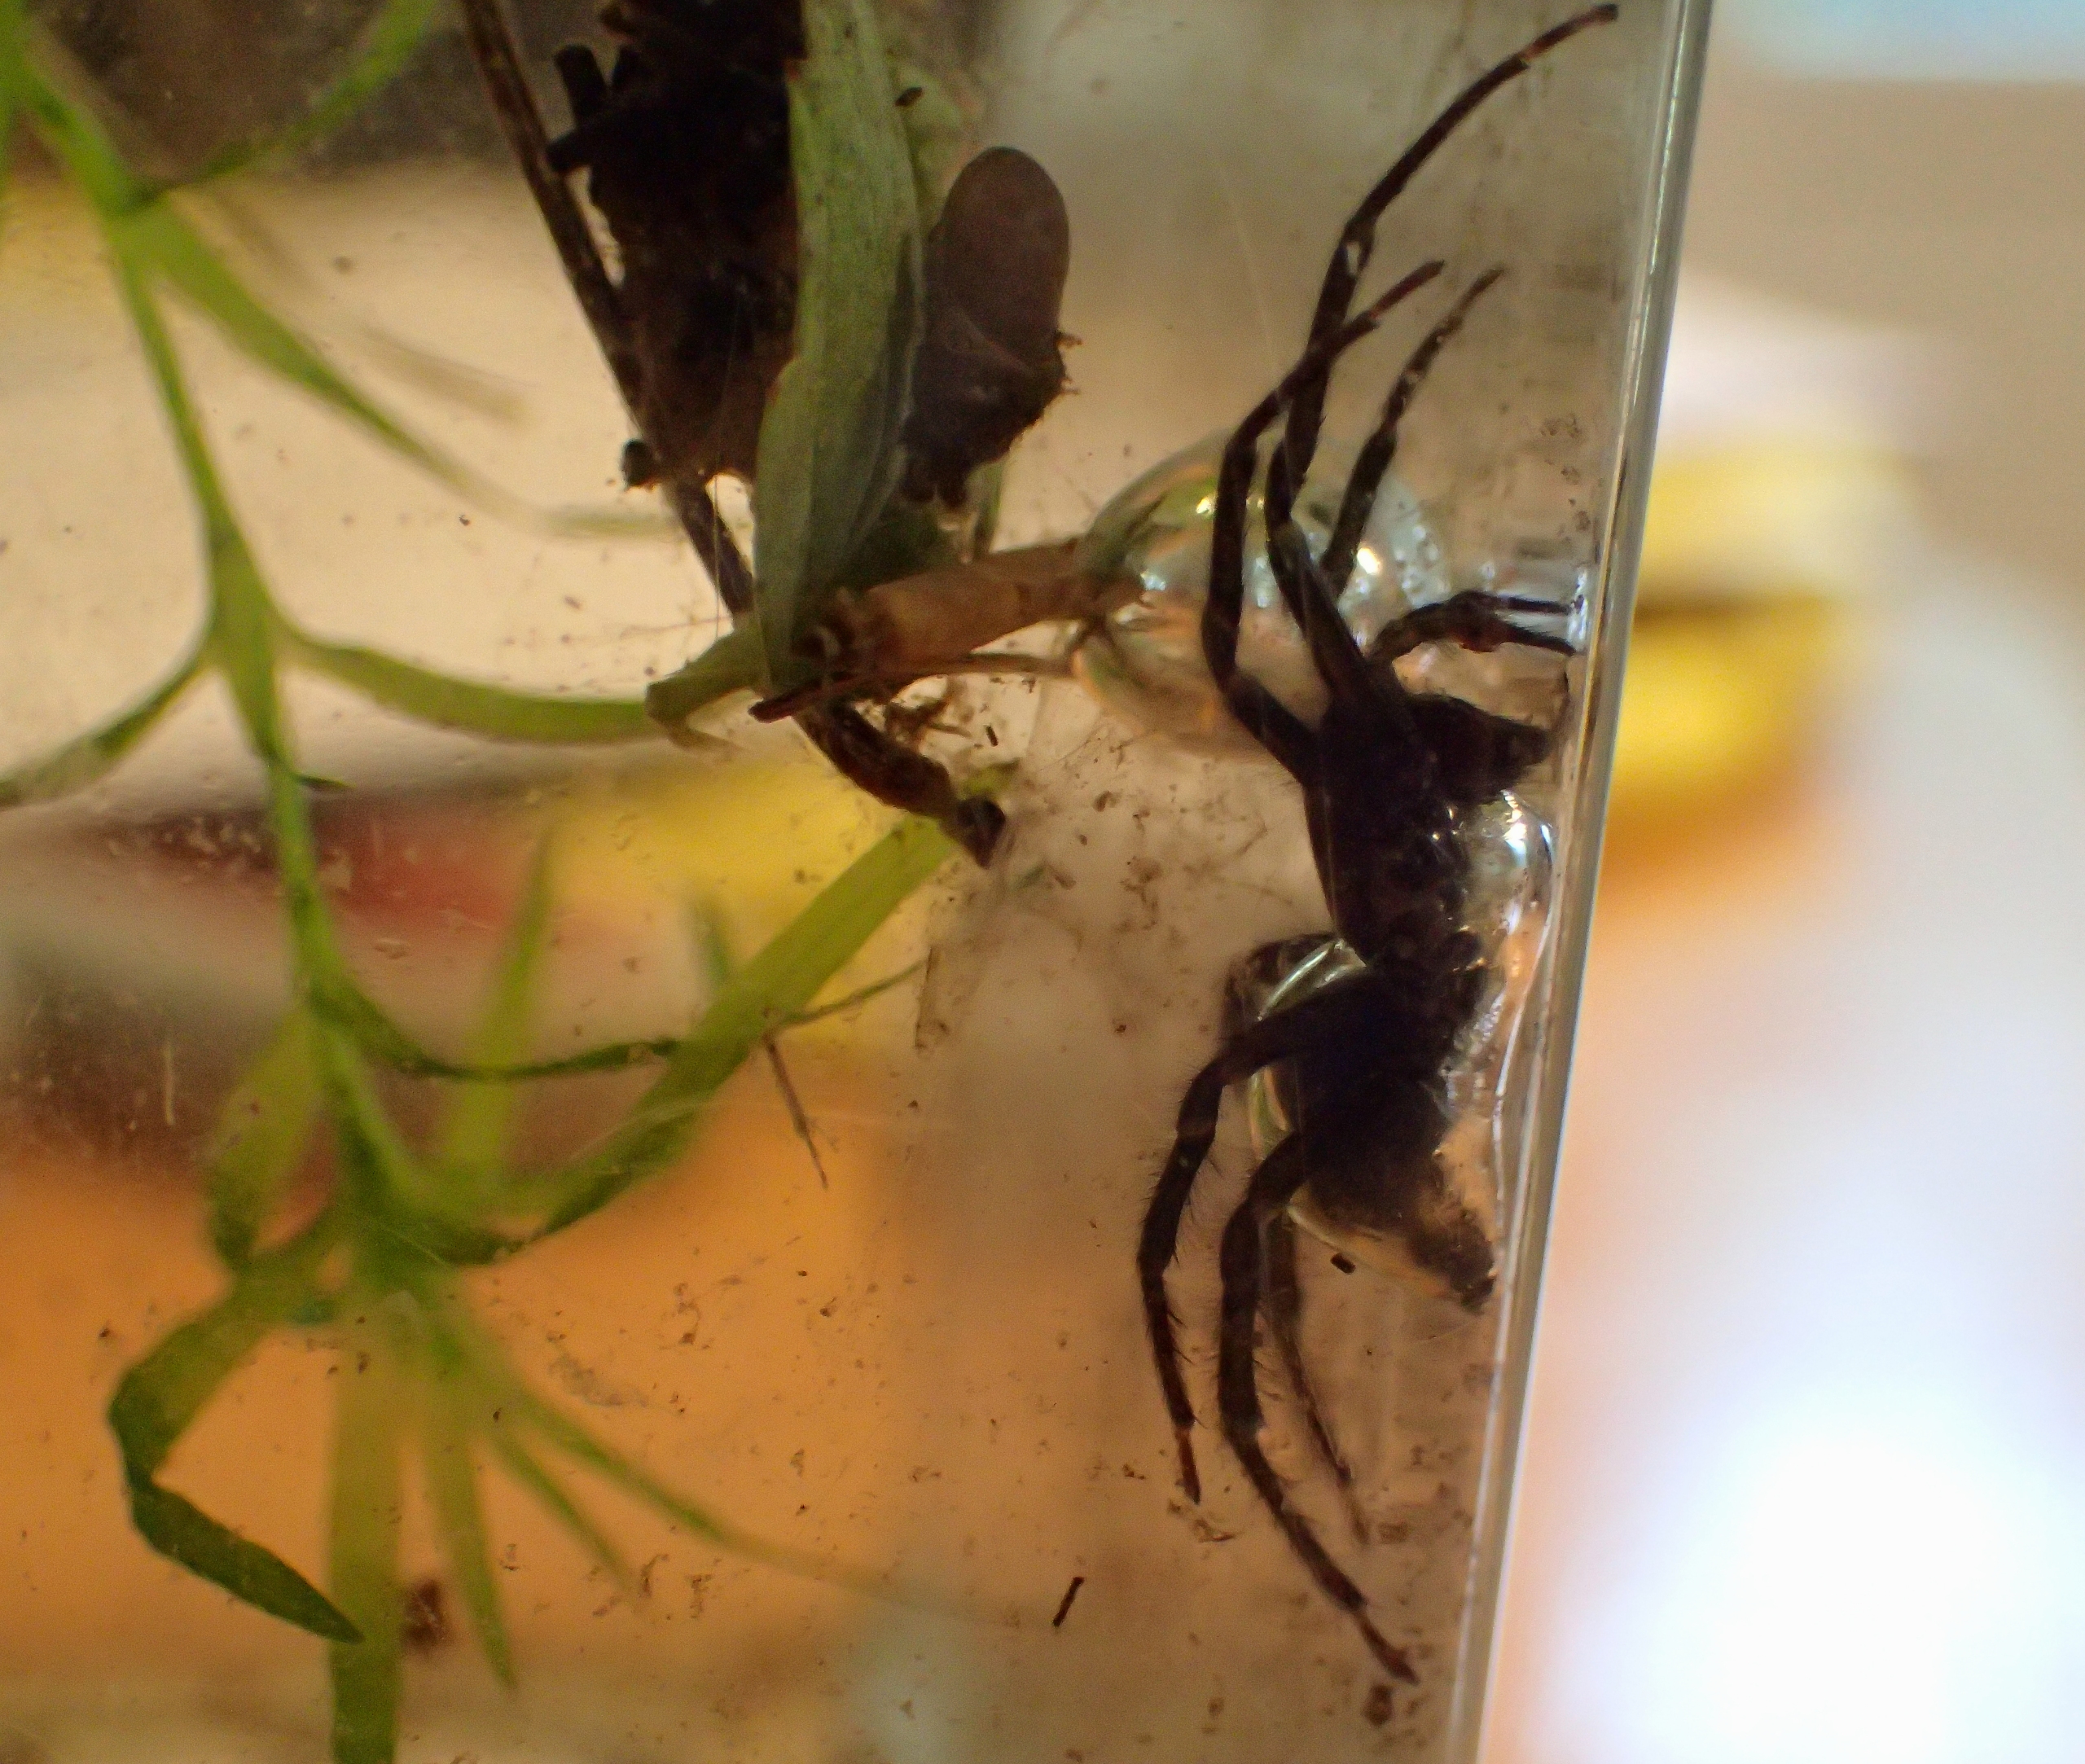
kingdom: Animalia
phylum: Arthropoda
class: Arachnida
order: Araneae
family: Dictynidae
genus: Argyroneta
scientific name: Argyroneta aquatica
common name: Vandedderkop
